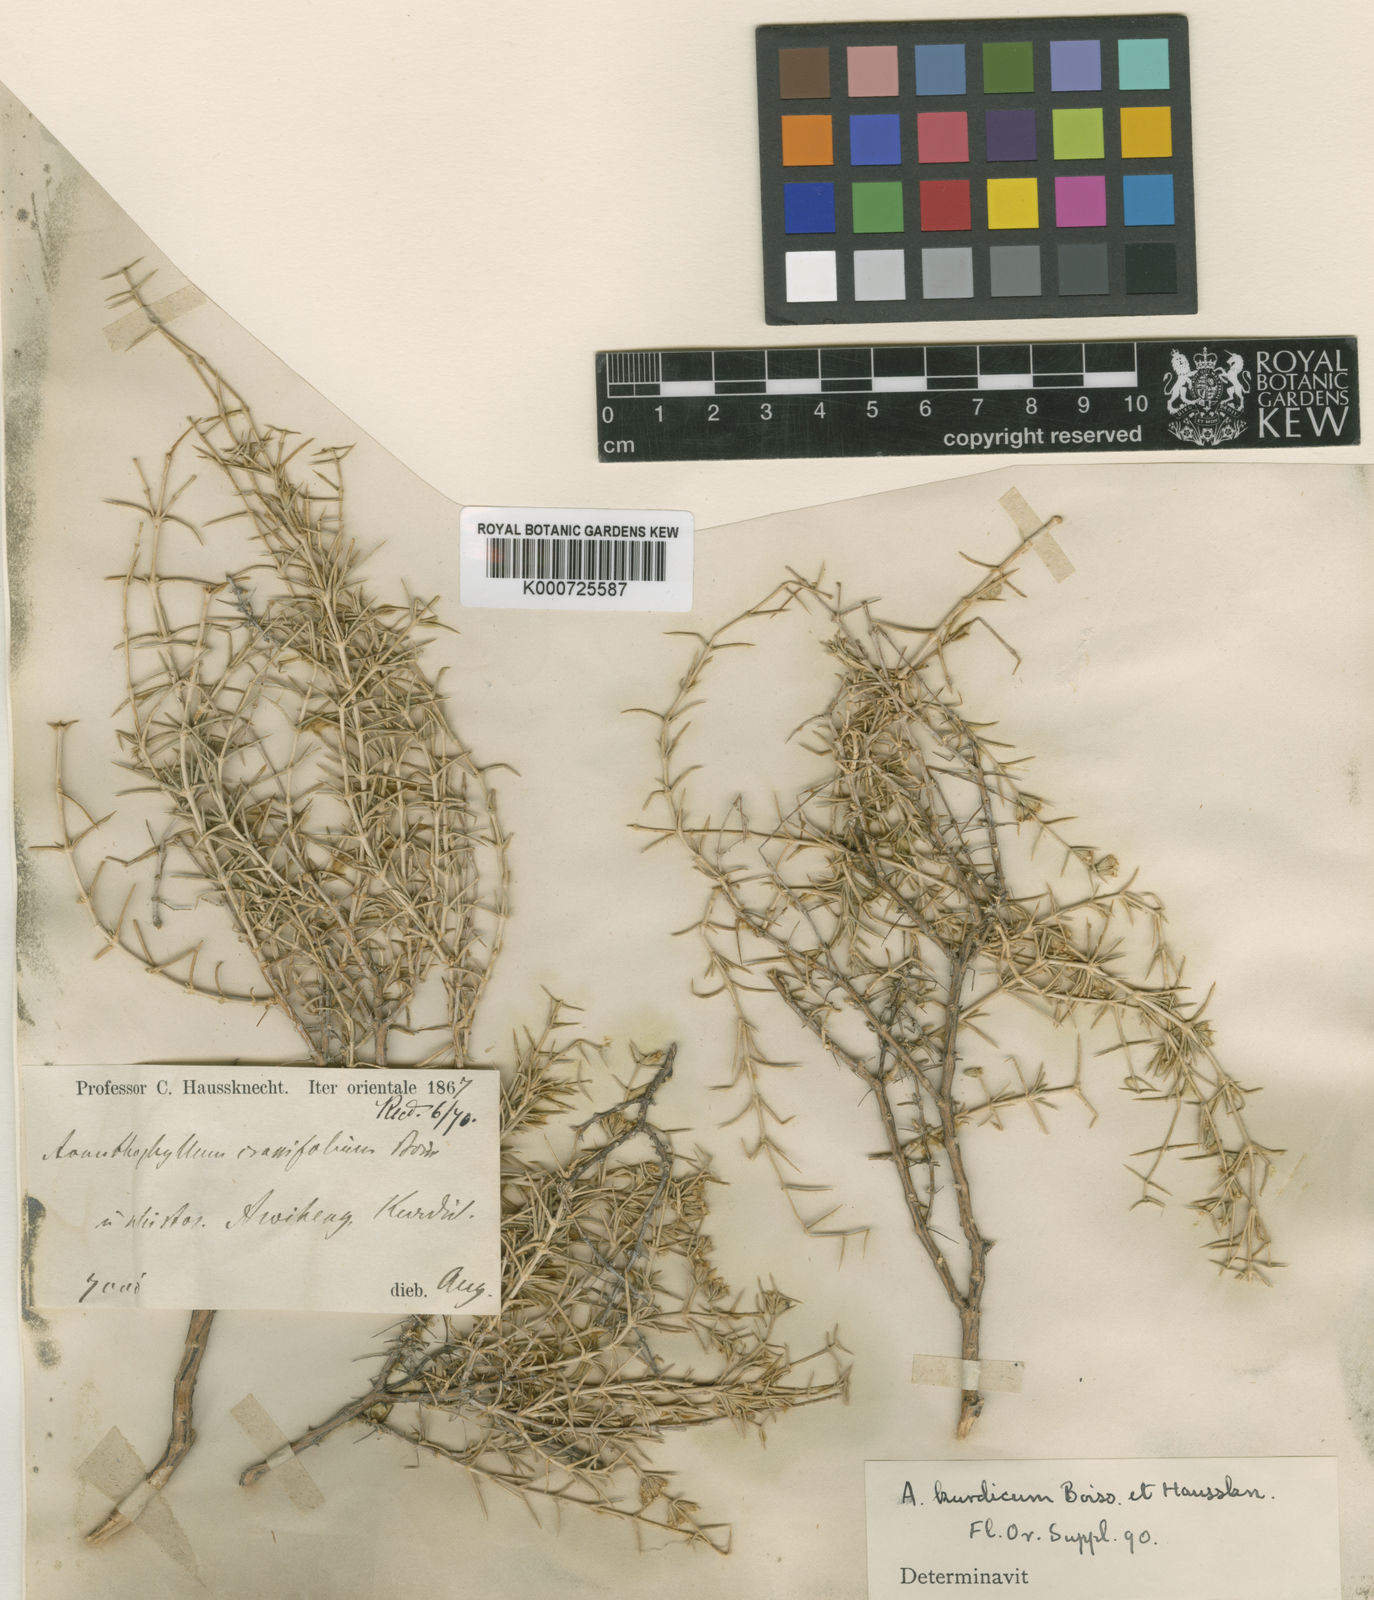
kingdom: Plantae
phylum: Tracheophyta
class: Magnoliopsida
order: Caryophyllales
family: Caryophyllaceae
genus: Acanthophyllum
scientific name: Acanthophyllum crassifolium
